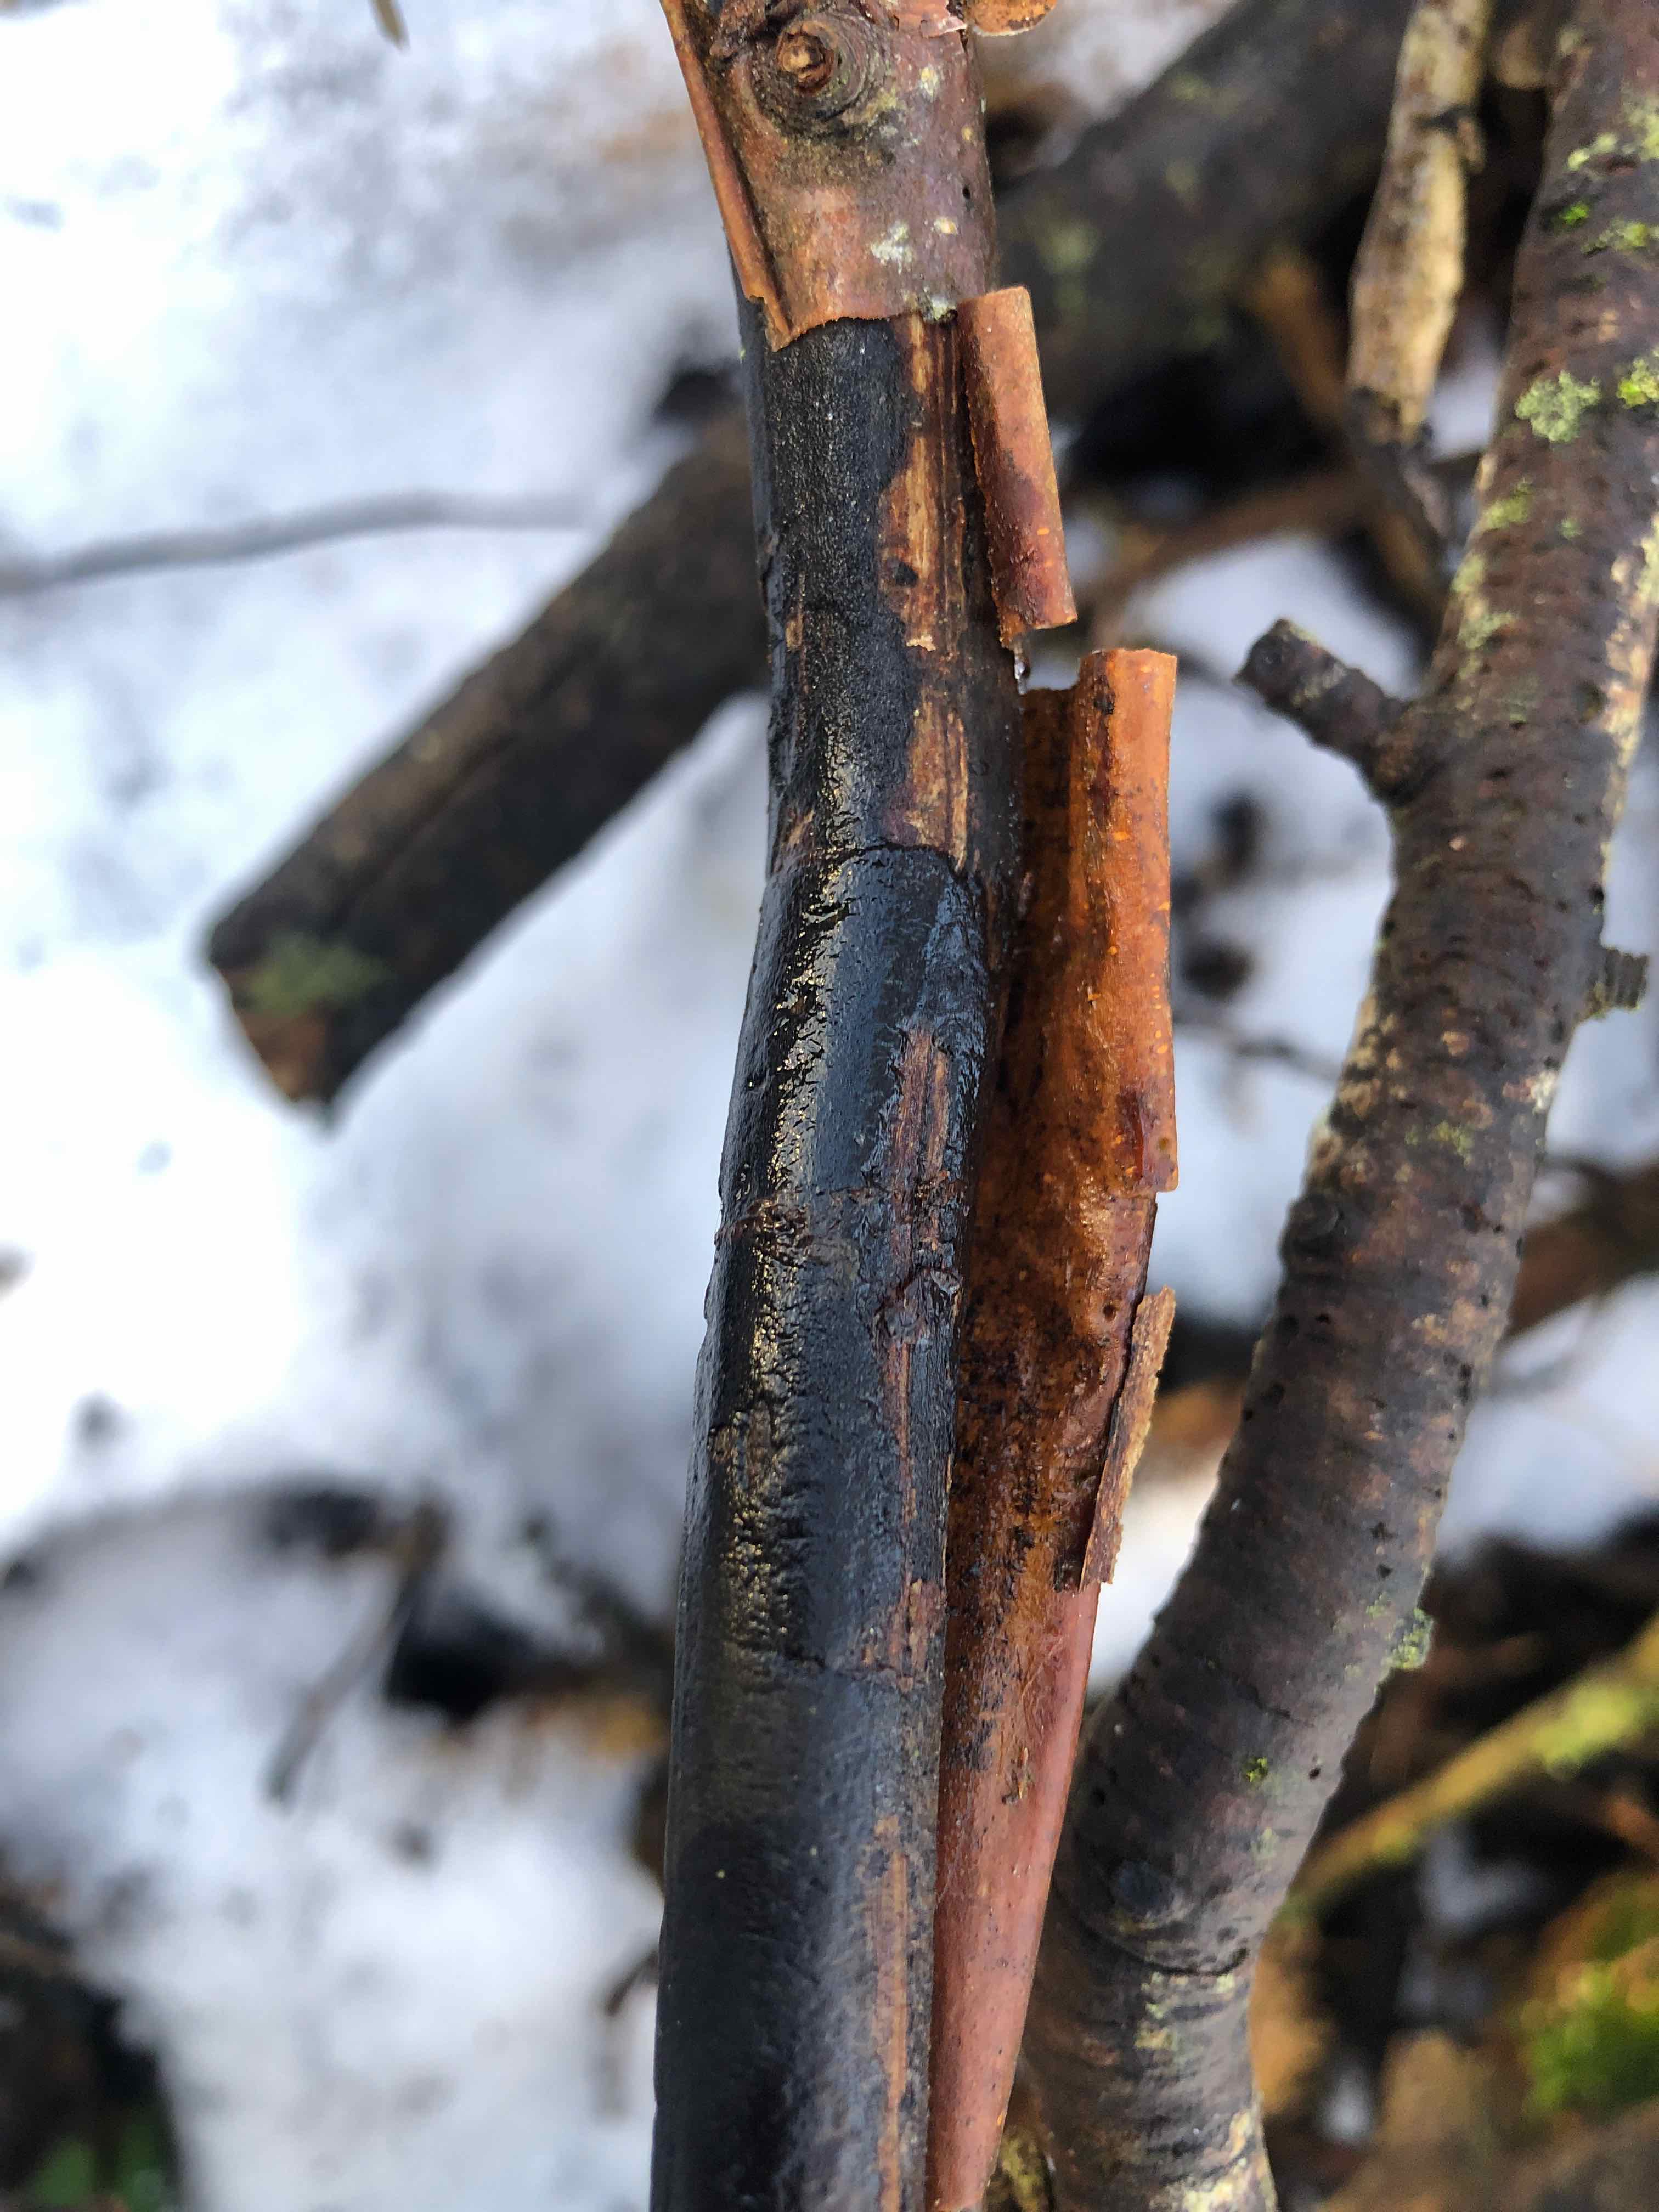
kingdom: Fungi
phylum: Ascomycota
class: Sordariomycetes
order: Xylariales
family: Diatrypaceae
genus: Diatrype
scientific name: Diatrype decorticata
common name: barksprænger-kulskorpe
